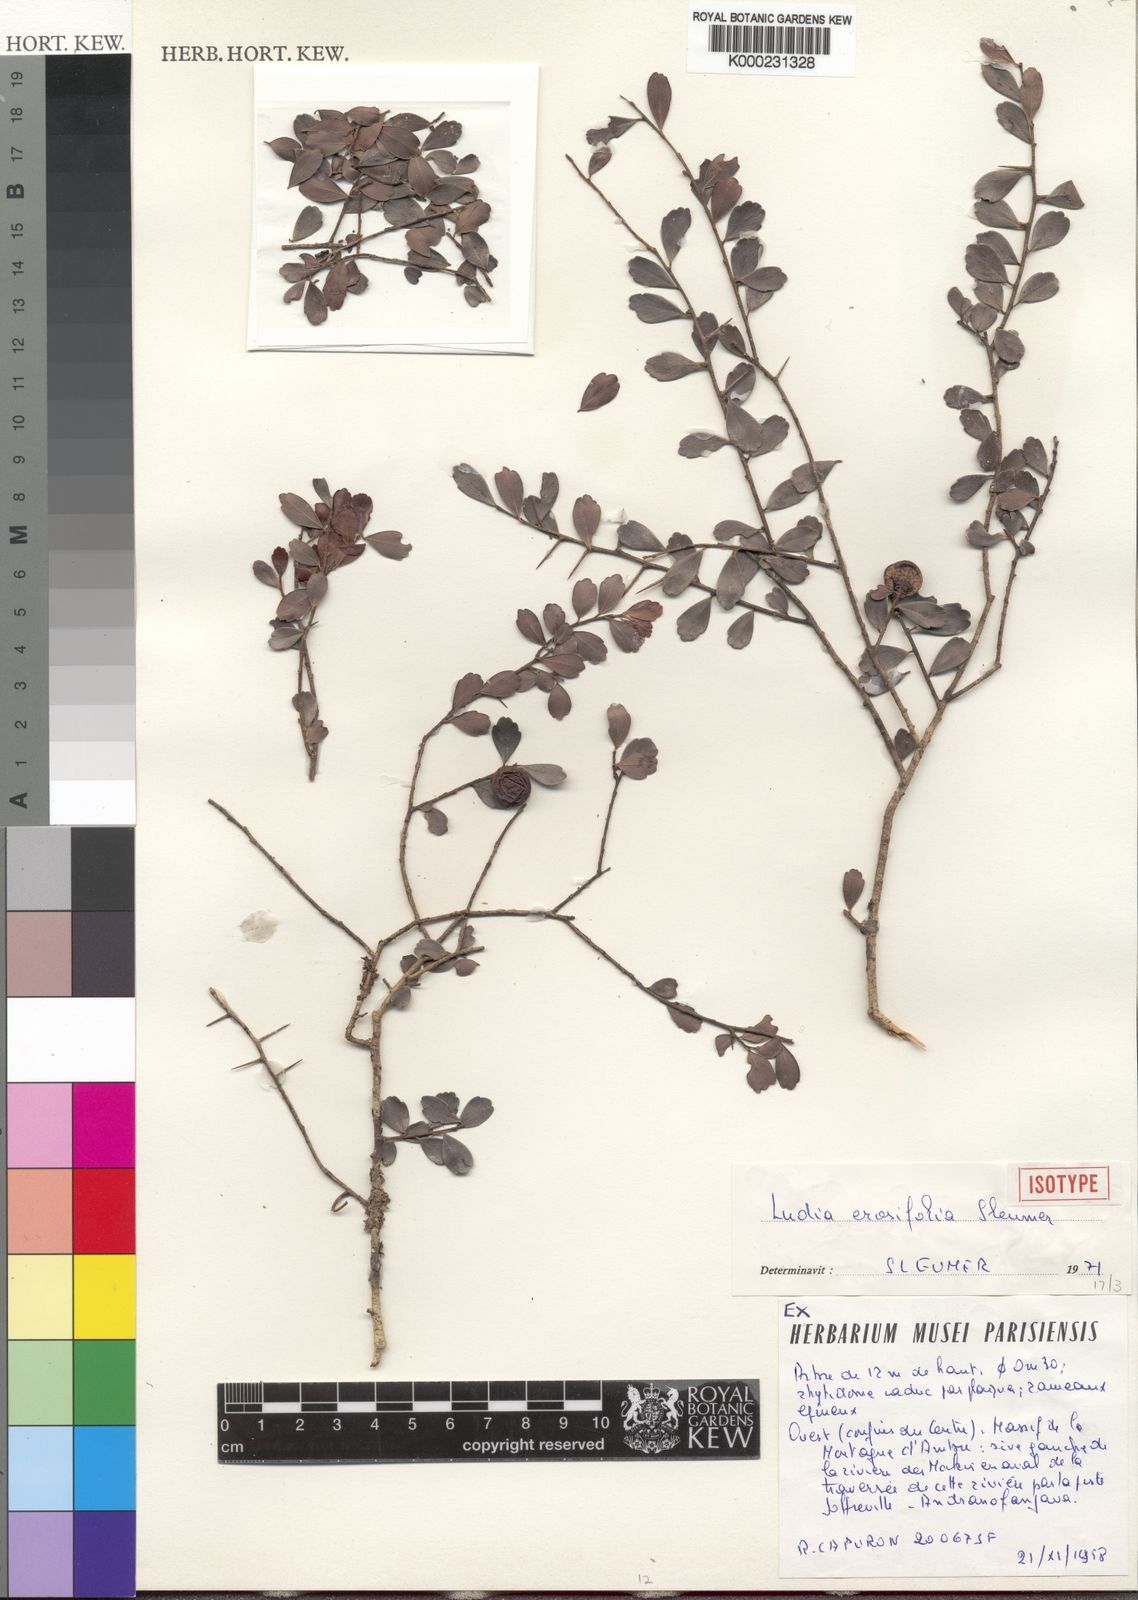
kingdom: Plantae
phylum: Tracheophyta
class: Magnoliopsida
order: Malpighiales
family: Salicaceae
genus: Ludia
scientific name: Ludia erosifolia
